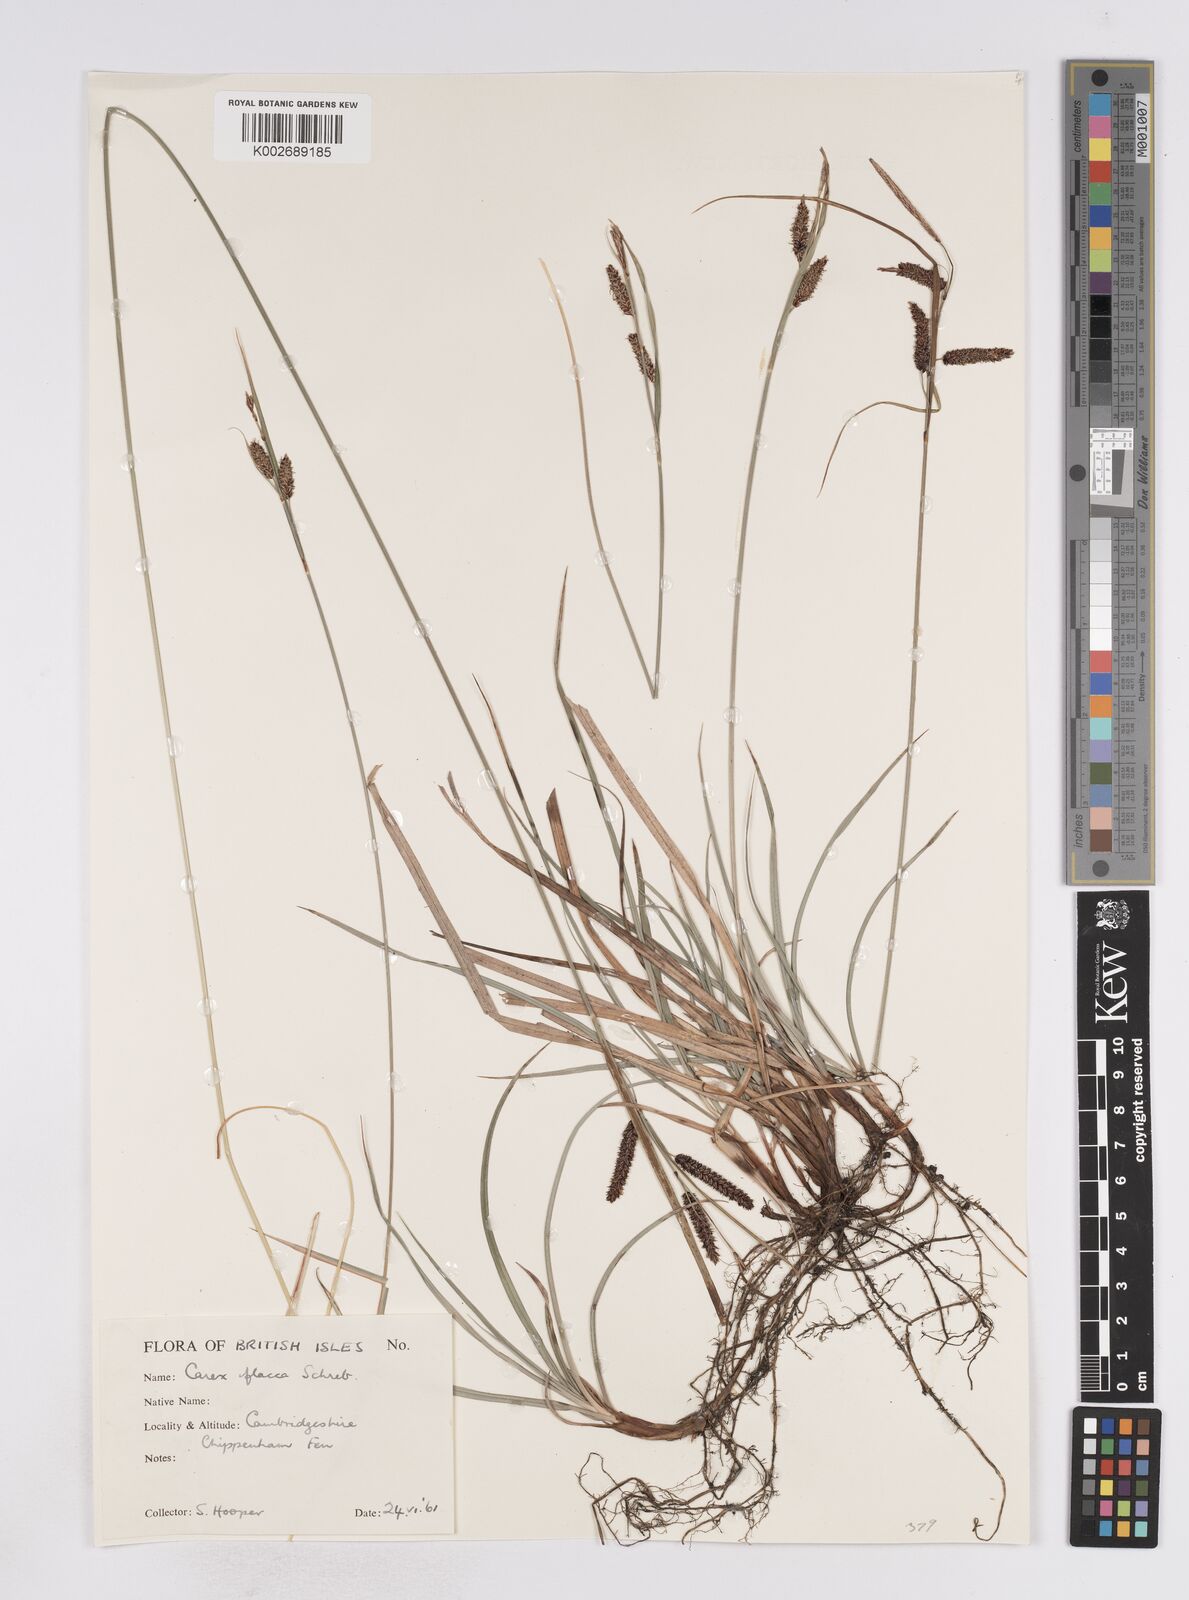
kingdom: Plantae
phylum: Tracheophyta
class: Liliopsida
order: Poales
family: Cyperaceae
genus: Carex
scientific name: Carex flacca
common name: Glaucous sedge
